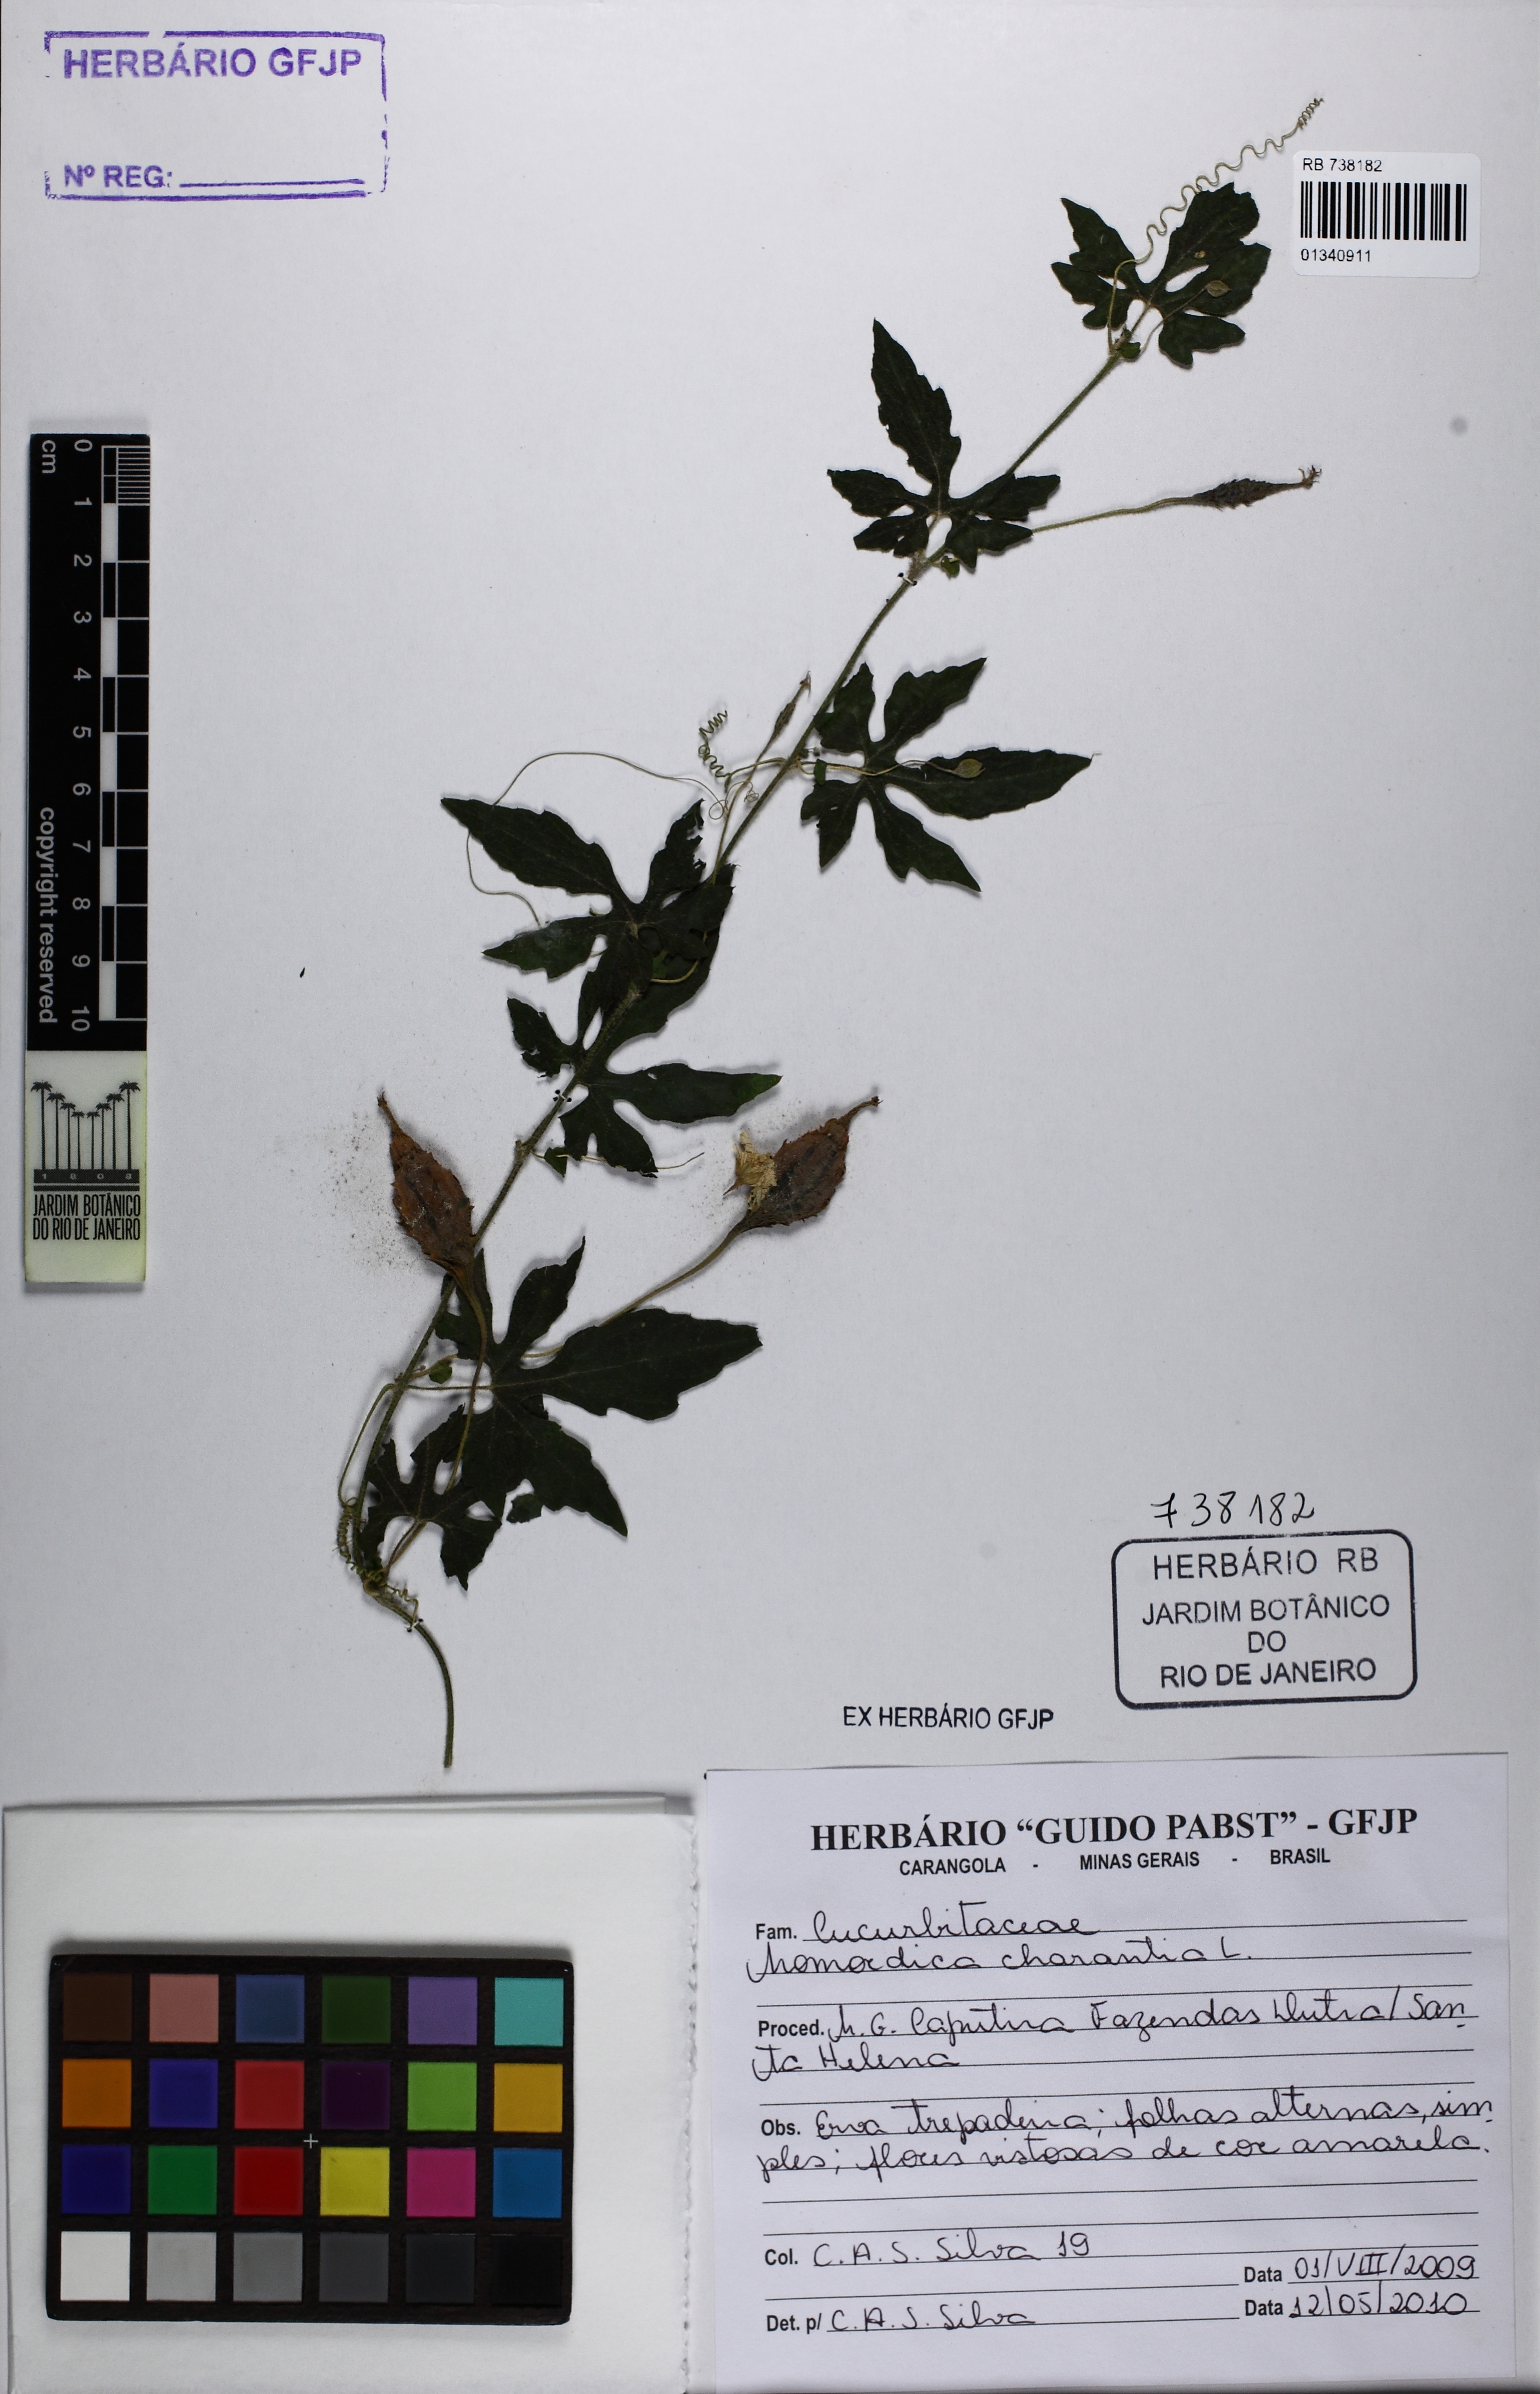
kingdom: Plantae
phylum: Tracheophyta
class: Magnoliopsida
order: Cucurbitales
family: Cucurbitaceae
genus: Momordica
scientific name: Momordica charantia
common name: Balsampear
